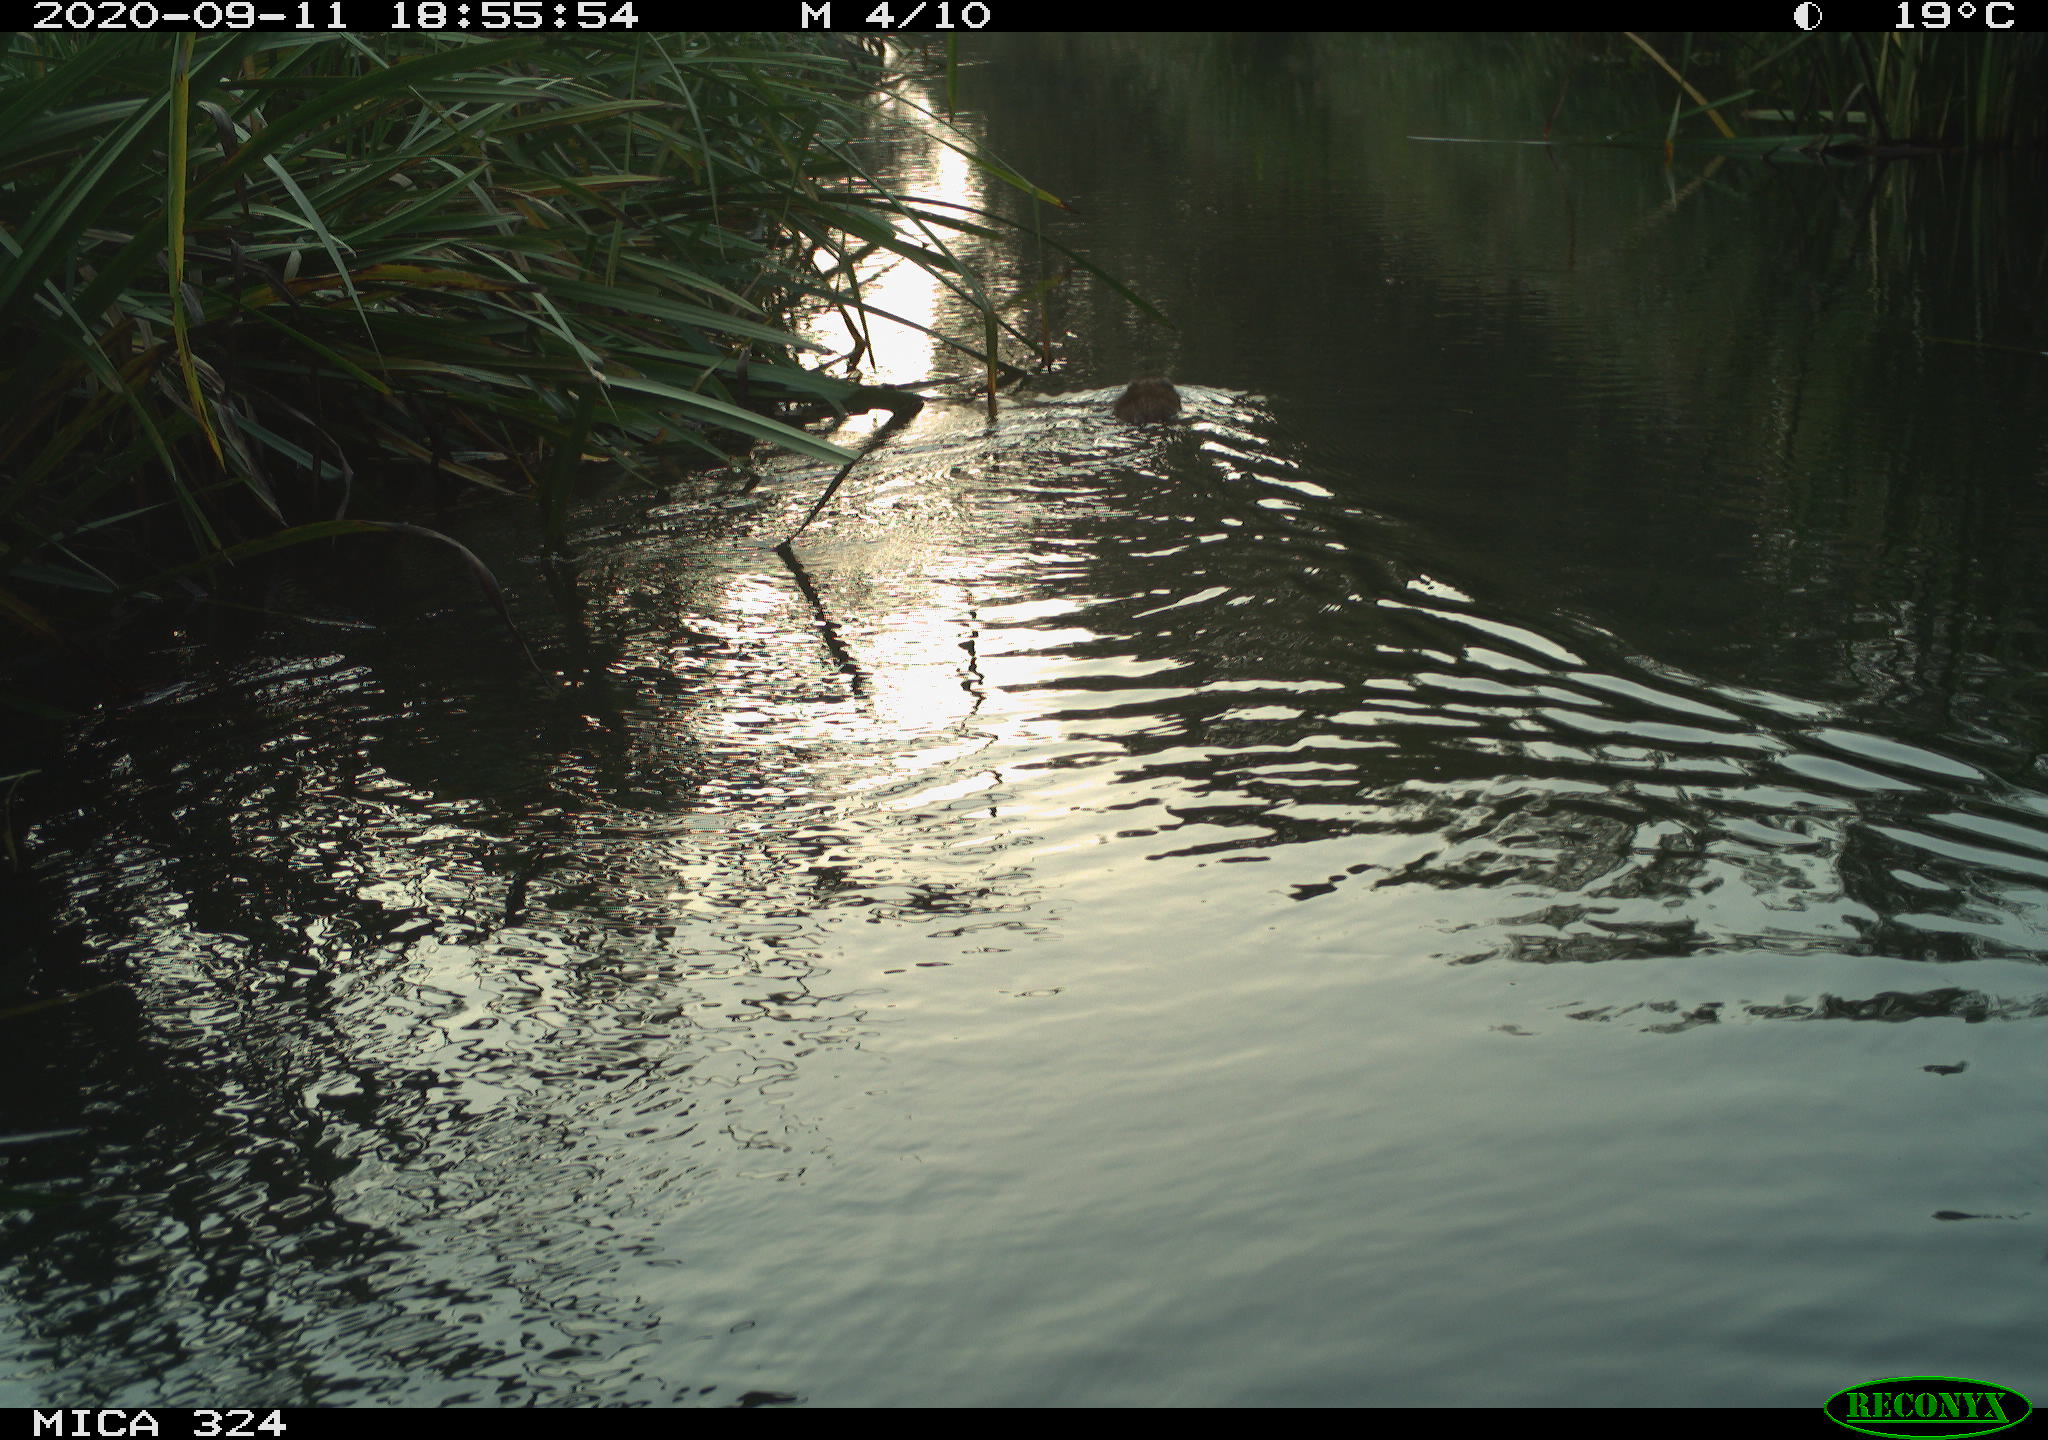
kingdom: Animalia
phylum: Chordata
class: Mammalia
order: Rodentia
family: Cricetidae
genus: Ondatra
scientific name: Ondatra zibethicus
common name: Muskrat
